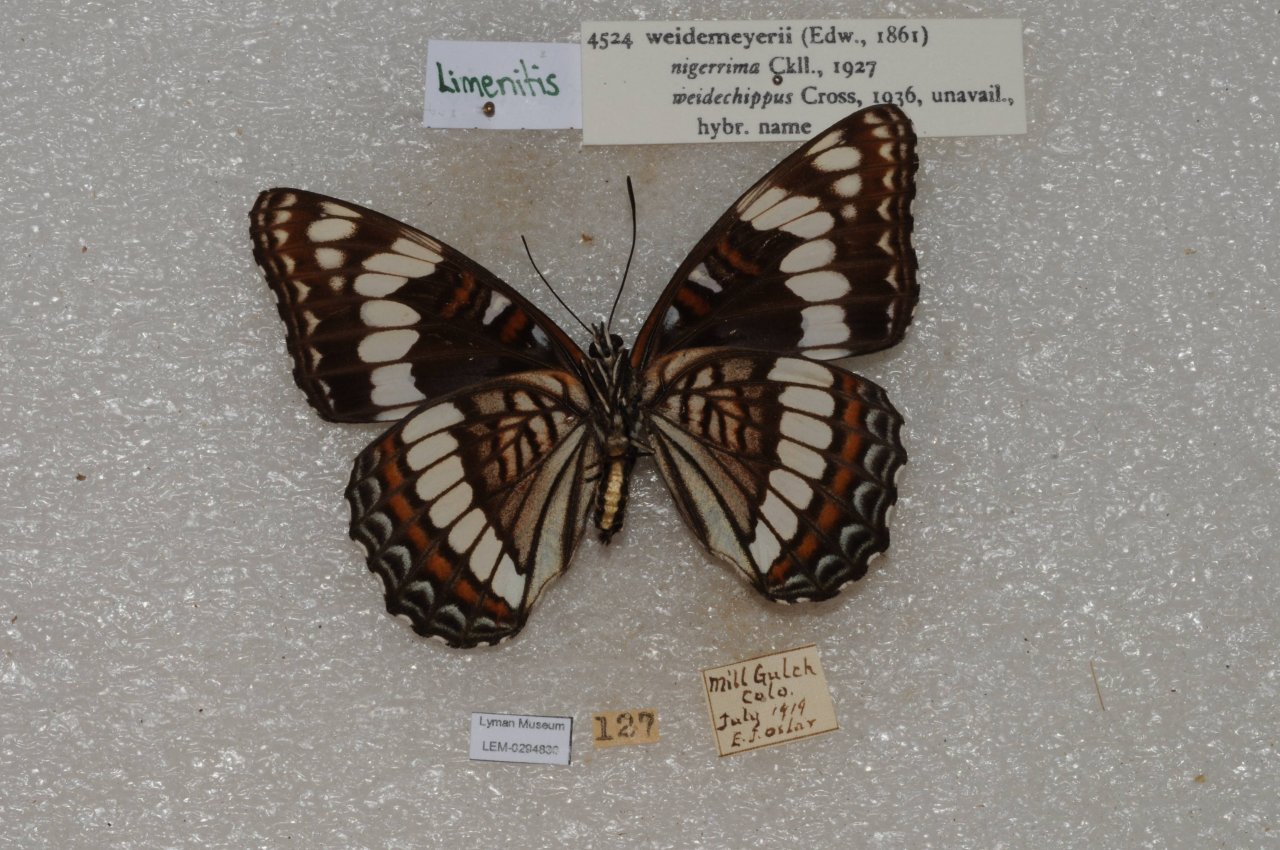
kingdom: Animalia
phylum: Arthropoda
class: Insecta
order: Lepidoptera
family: Nymphalidae
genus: Limenitis
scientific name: Limenitis weidemeyerii
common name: Weidemeyer's Admiral
